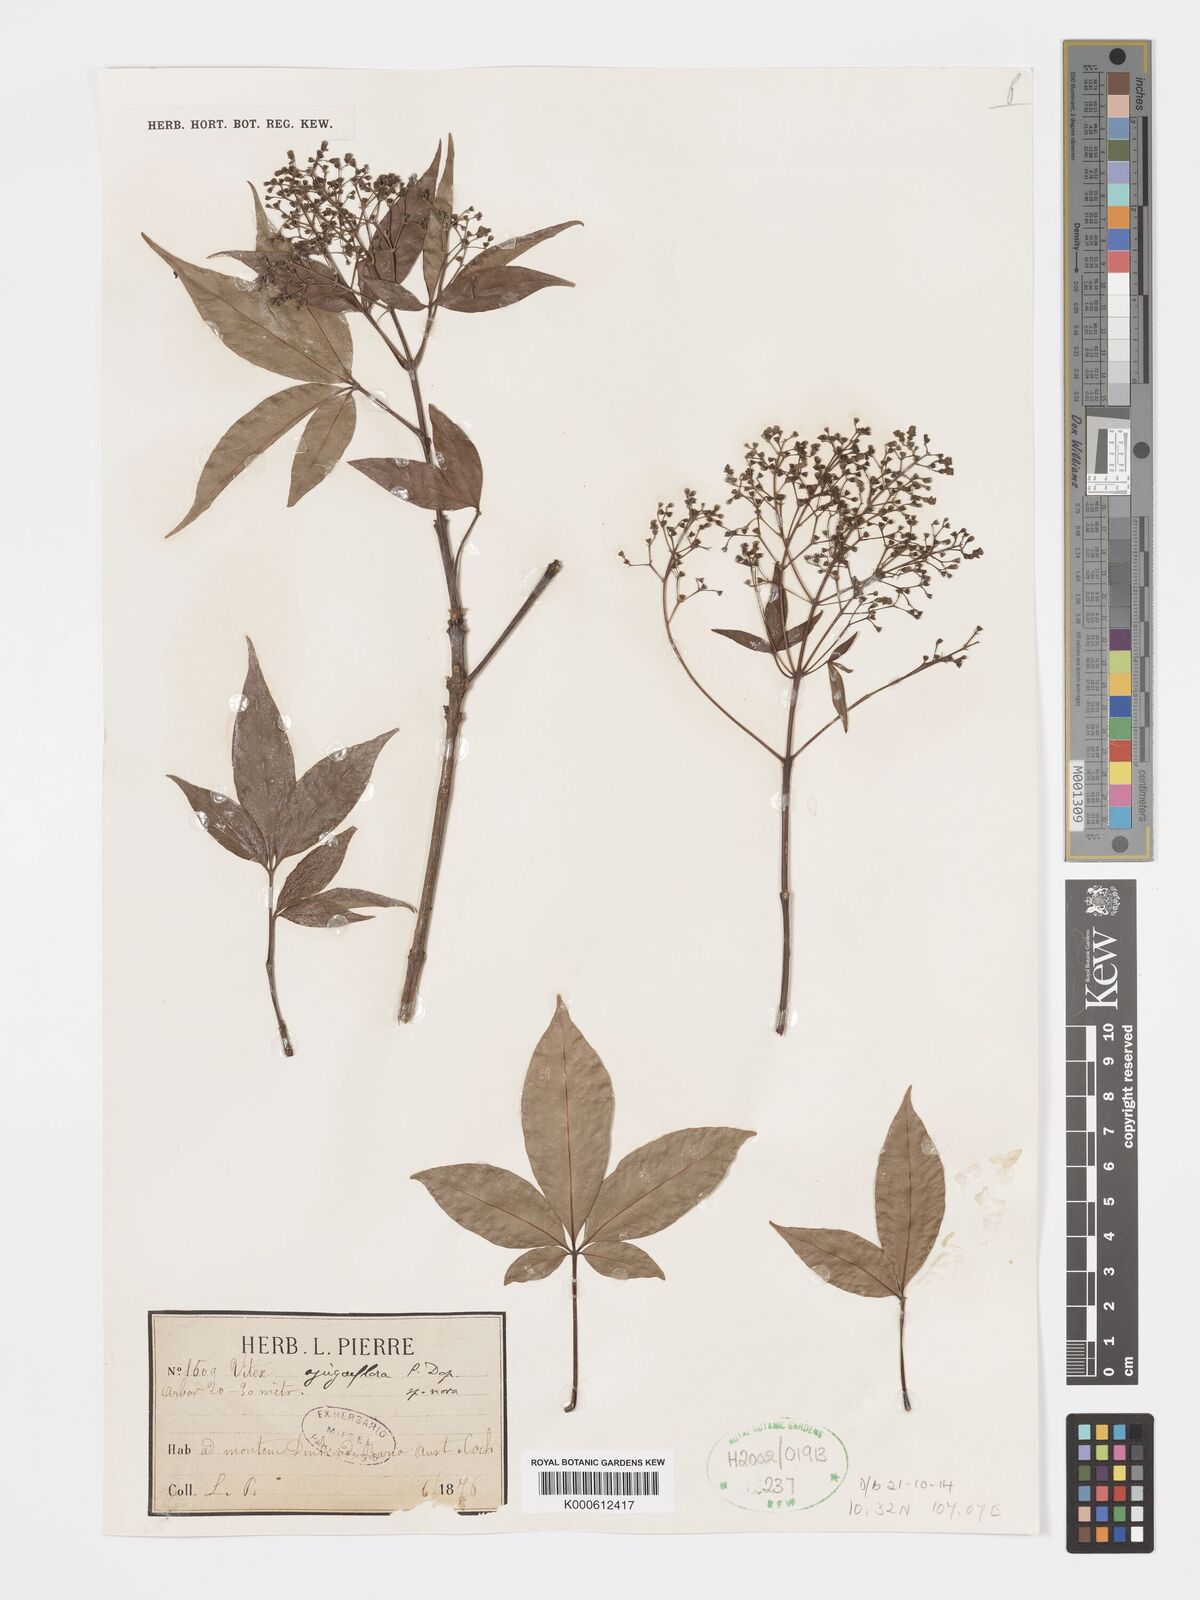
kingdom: Plantae
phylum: Tracheophyta
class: Magnoliopsida
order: Lamiales
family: Lamiaceae
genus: Vitex
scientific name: Vitex ajugiflora
